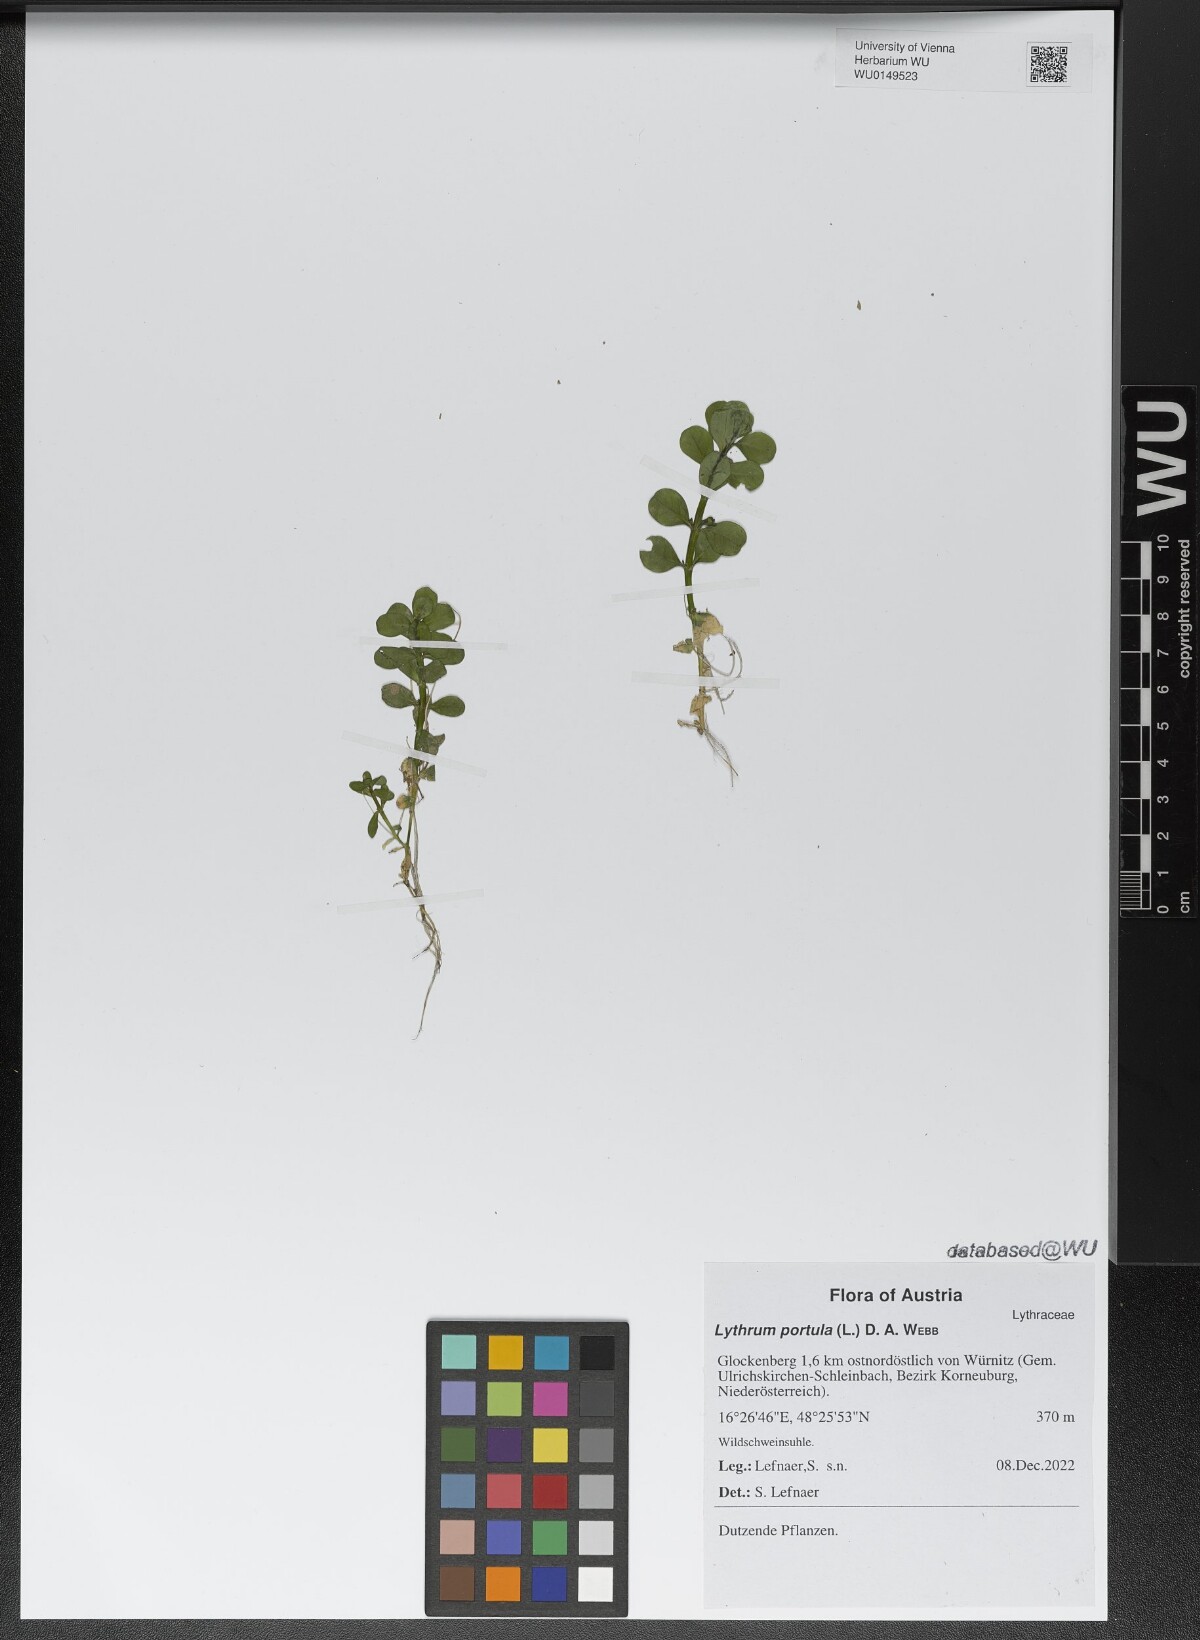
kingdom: Plantae
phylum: Tracheophyta
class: Magnoliopsida
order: Myrtales
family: Lythraceae
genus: Lythrum
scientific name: Lythrum portula
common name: Water purslane
